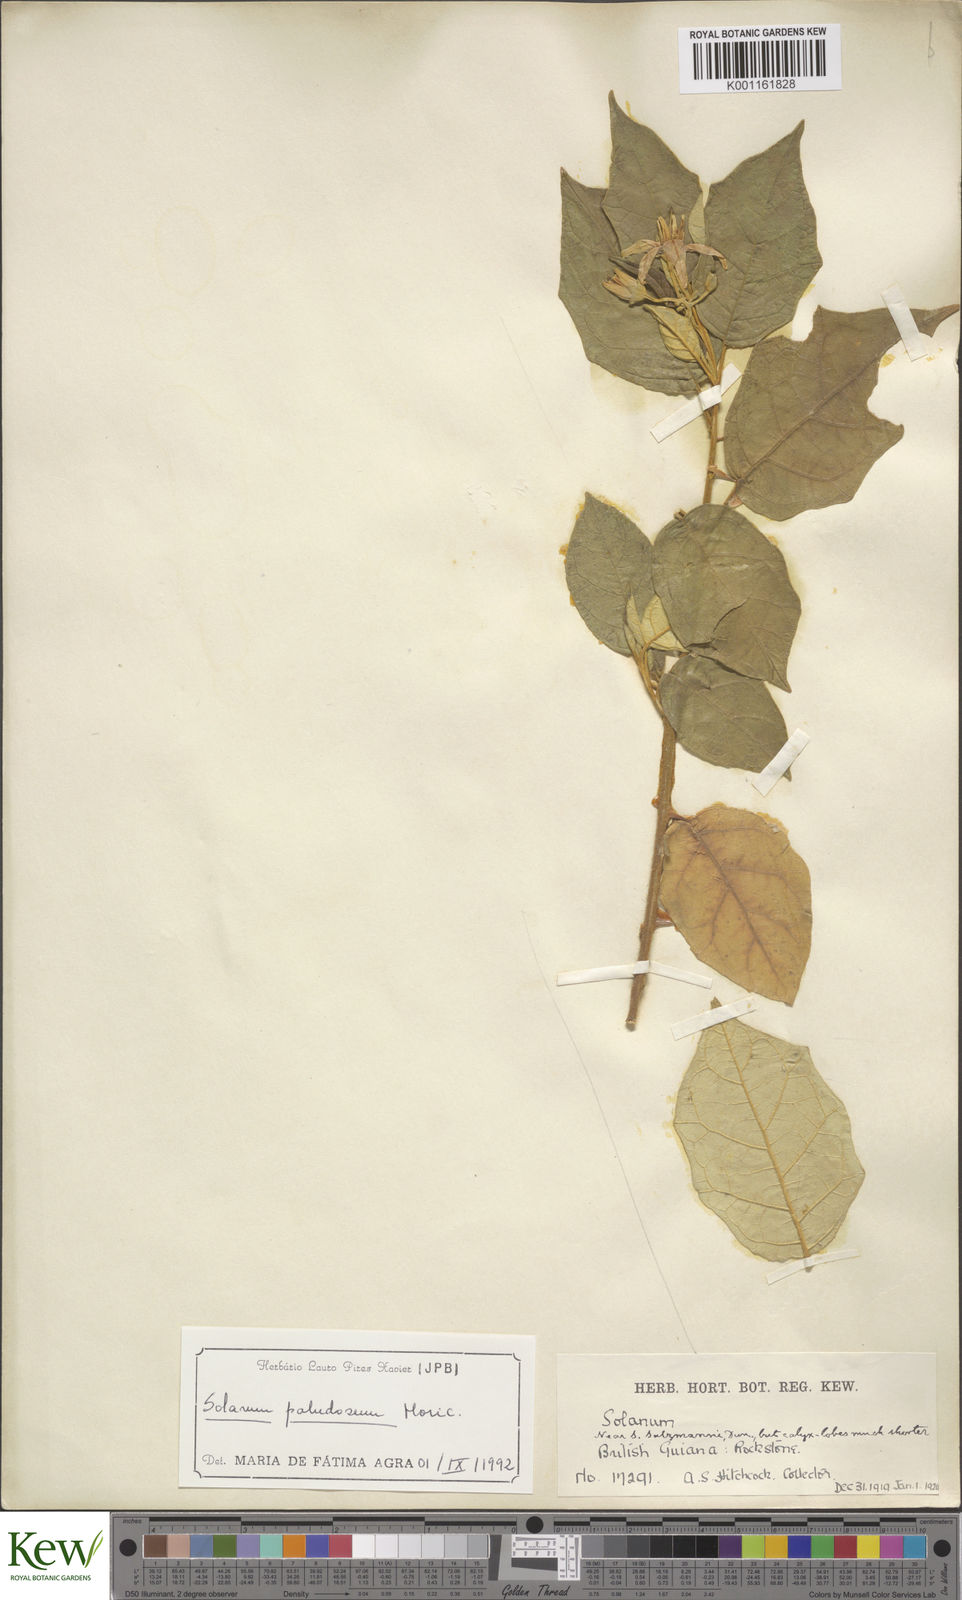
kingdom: Plantae
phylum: Tracheophyta
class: Magnoliopsida
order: Solanales
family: Solanaceae
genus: Solanum
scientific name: Solanum paludosum
